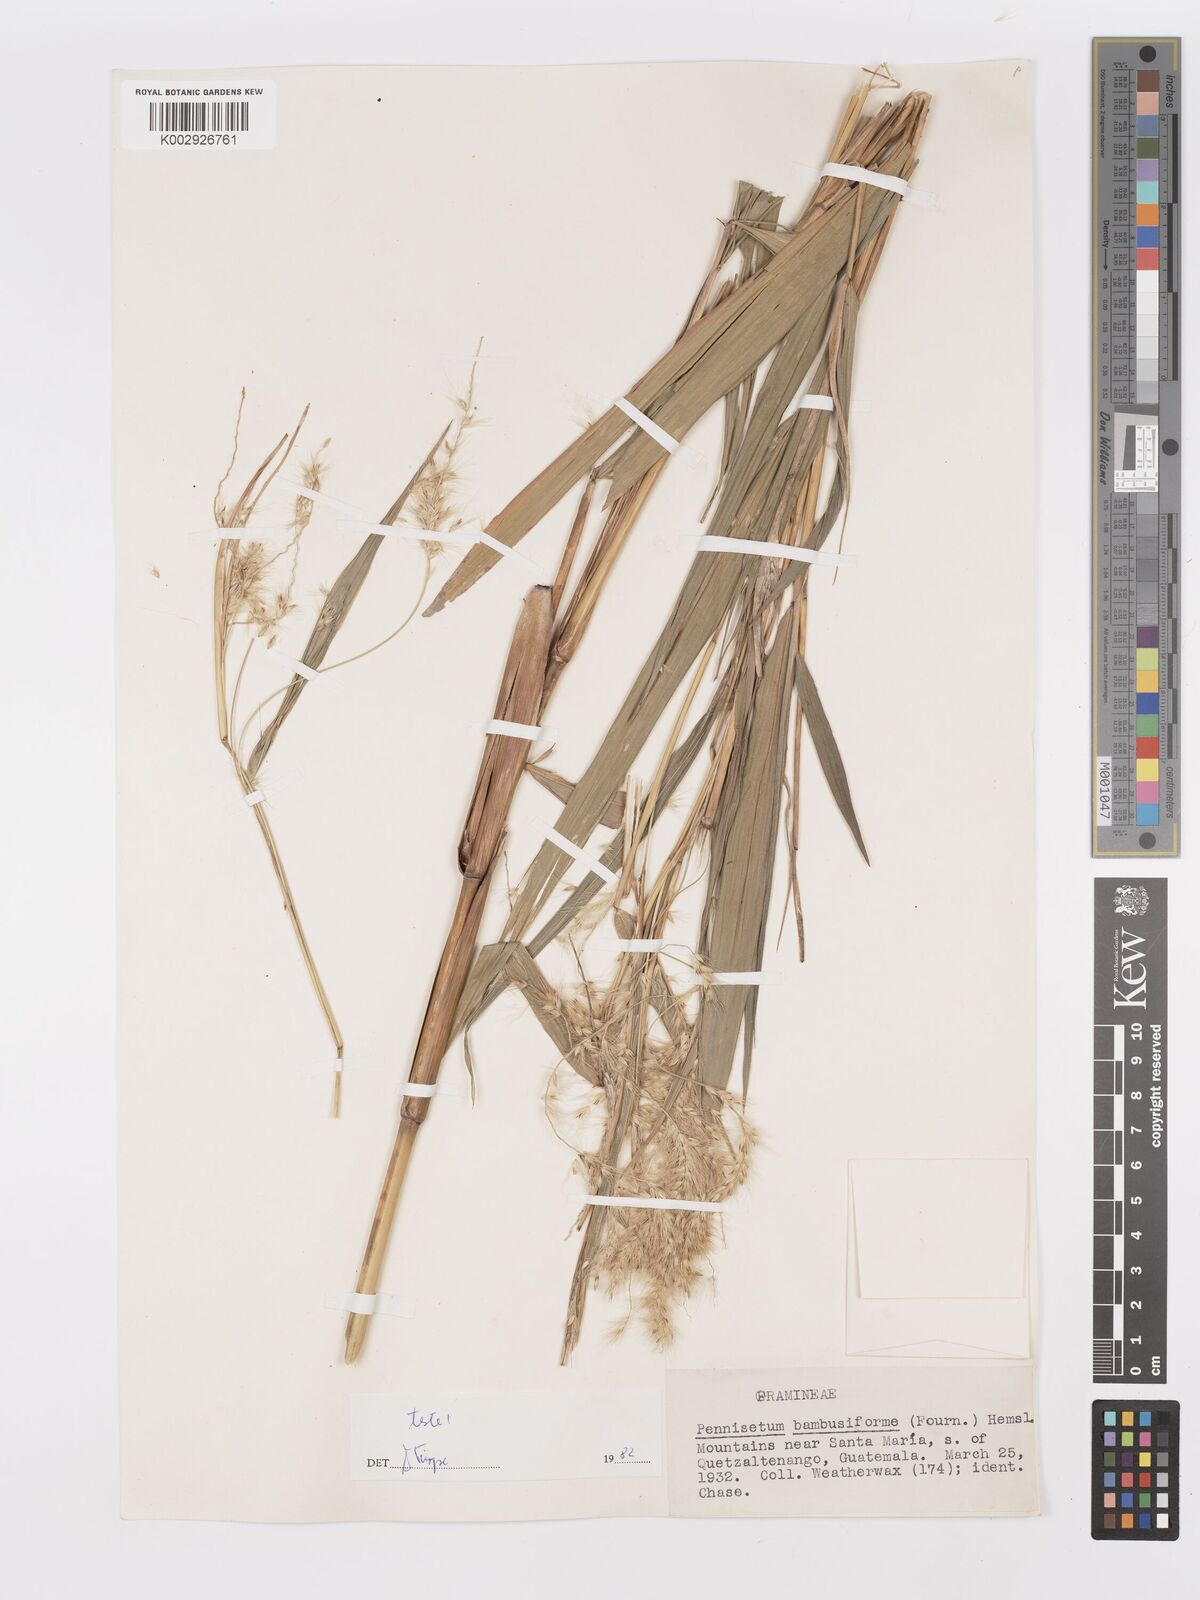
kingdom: Plantae
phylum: Tracheophyta
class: Liliopsida
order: Poales
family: Poaceae
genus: Cenchrus
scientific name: Cenchrus preslii
